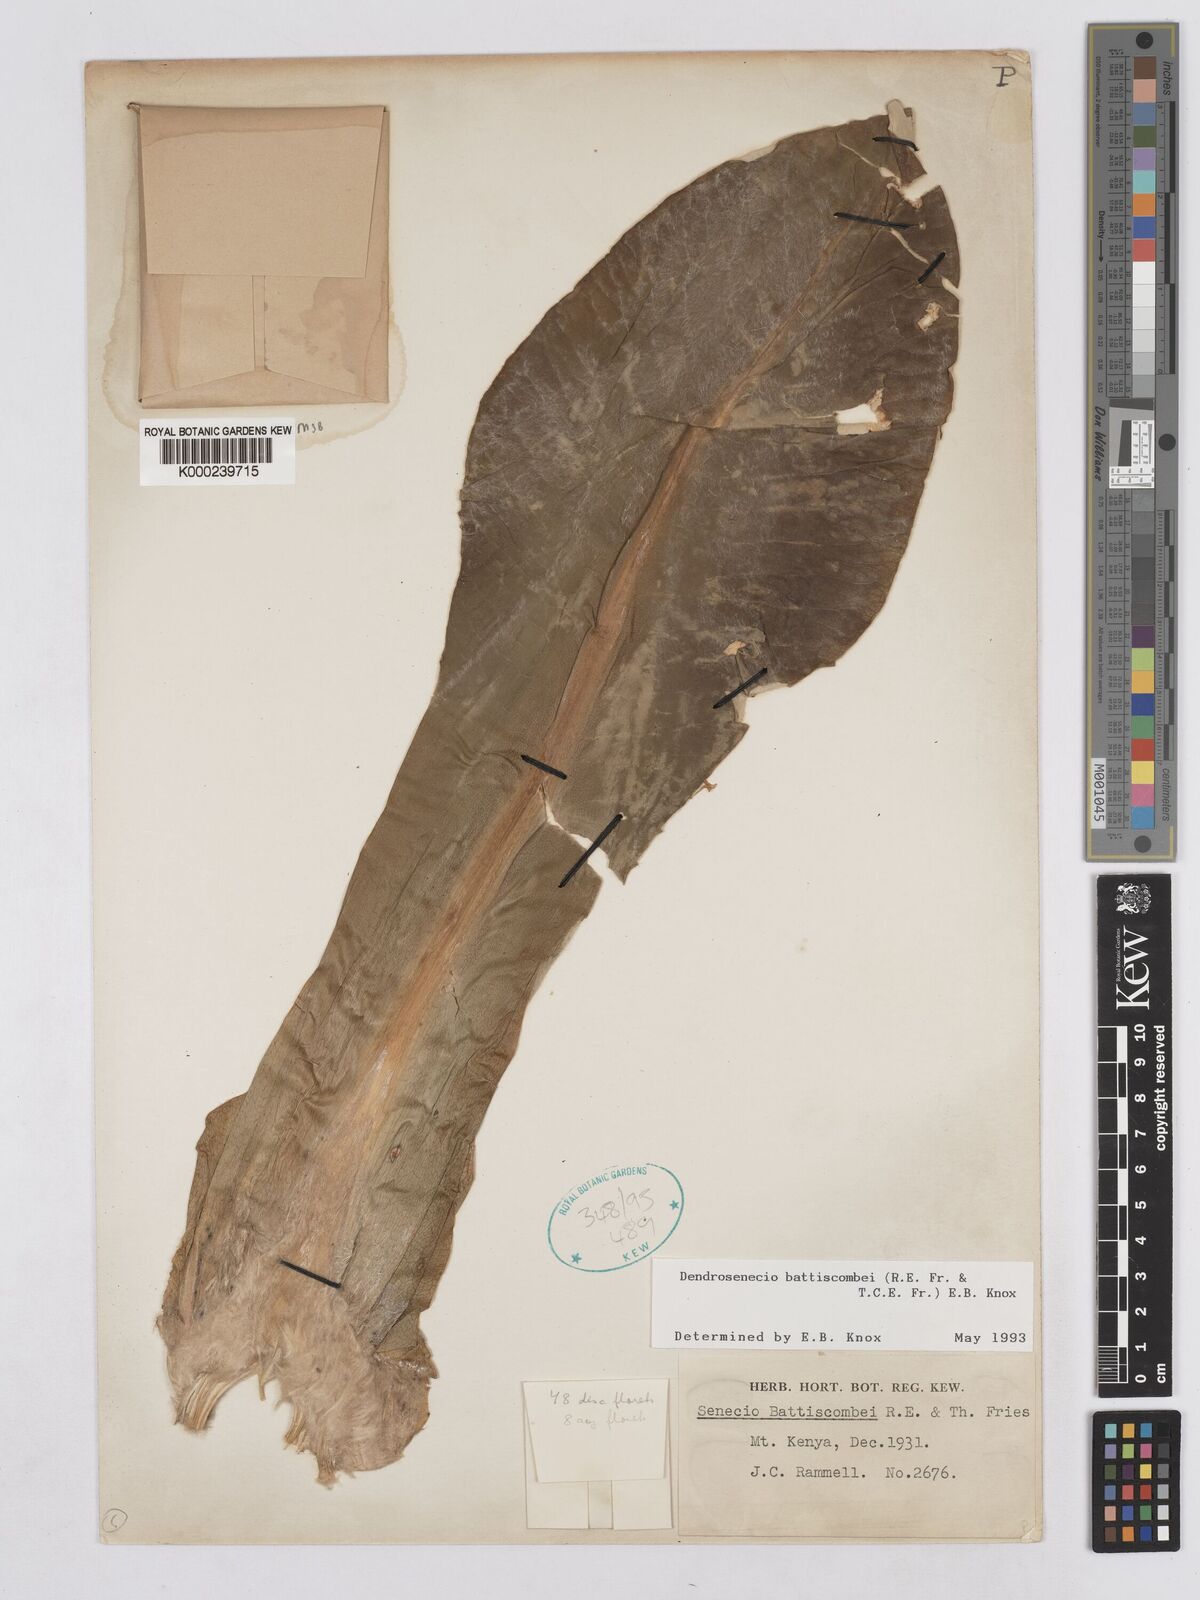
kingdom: Plantae
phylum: Tracheophyta
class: Magnoliopsida
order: Asterales
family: Asteraceae
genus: Dendrosenecio
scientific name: Dendrosenecio battiscombei
